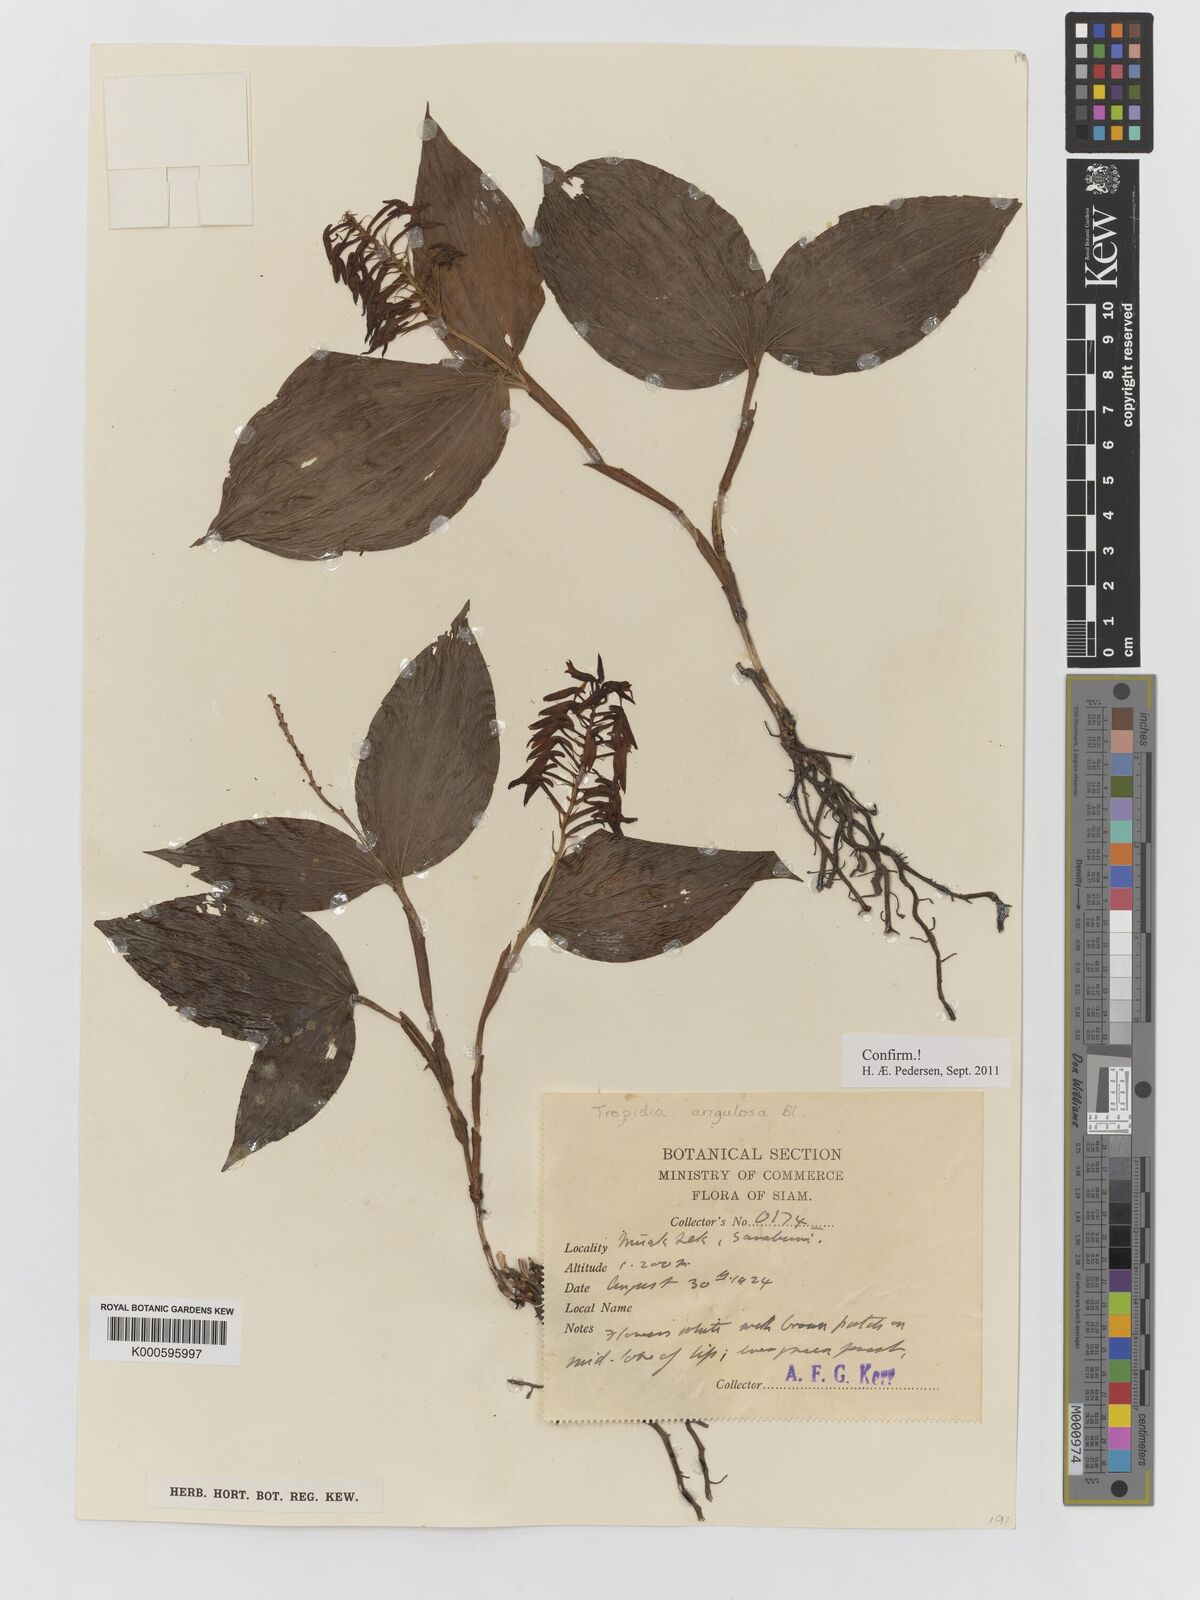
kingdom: Plantae
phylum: Tracheophyta
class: Liliopsida
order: Asparagales
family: Orchidaceae
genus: Tropidia
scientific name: Tropidia angulosa
